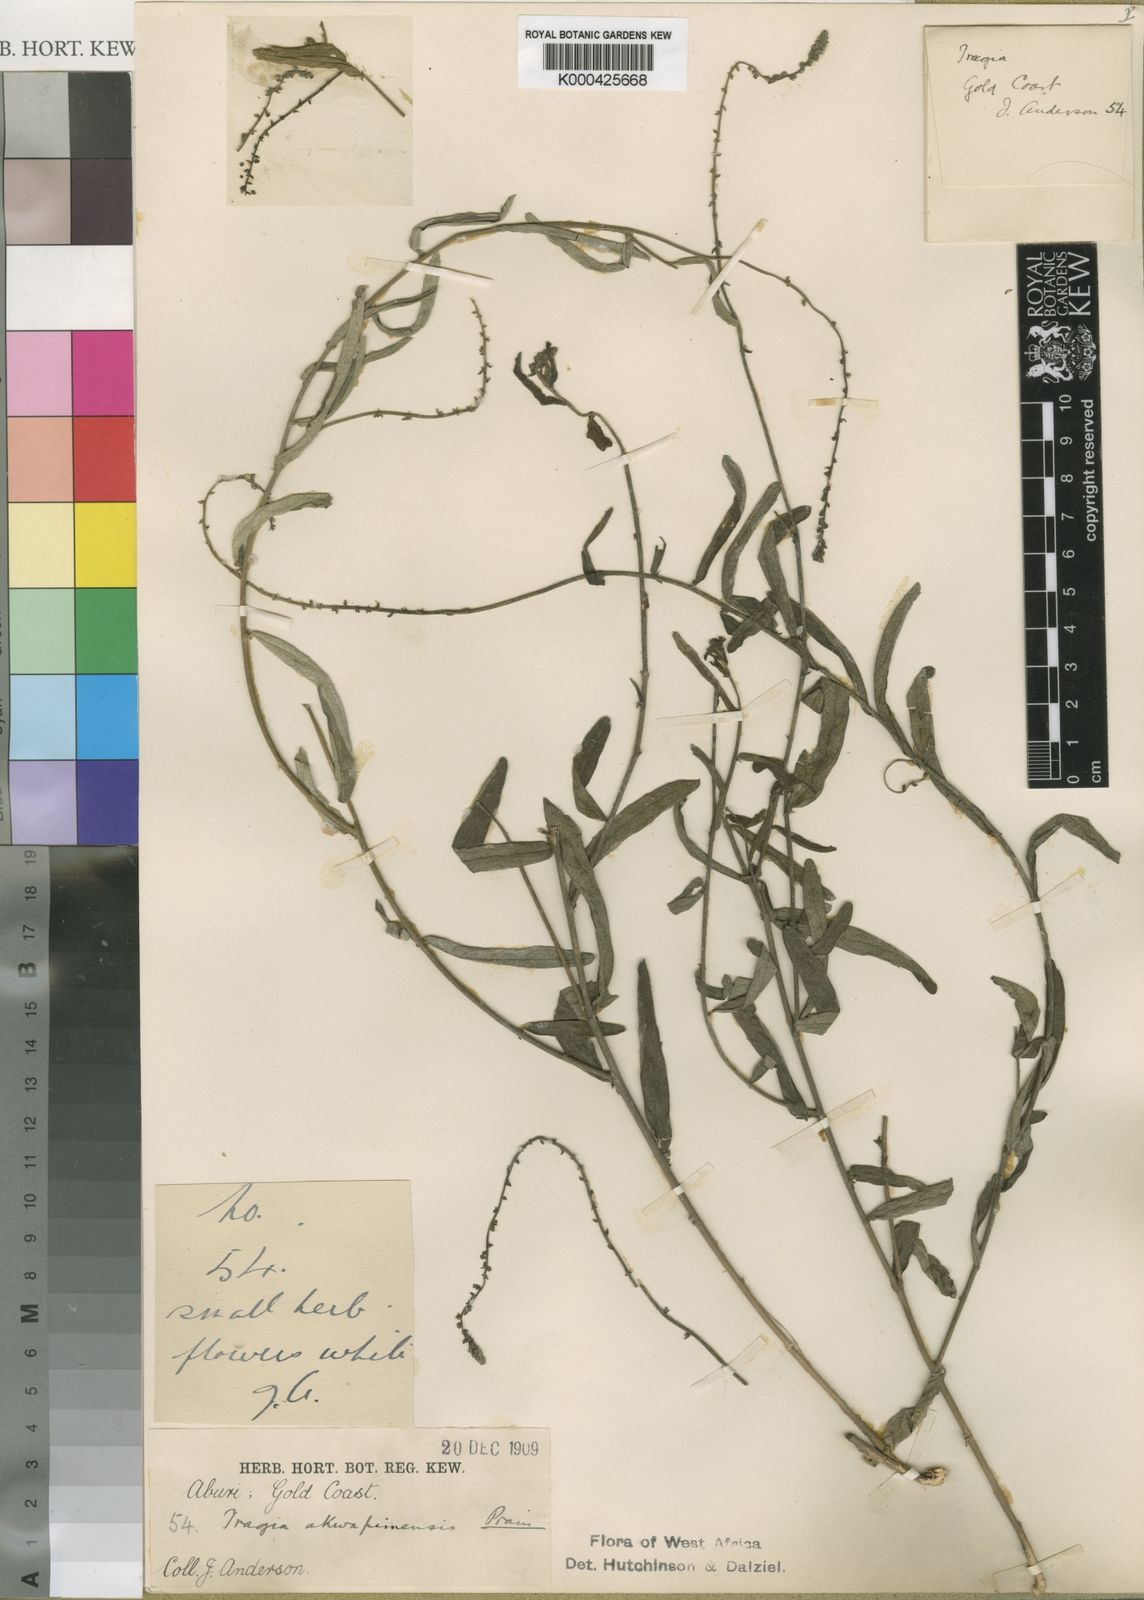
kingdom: Plantae
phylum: Tracheophyta
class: Magnoliopsida
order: Malpighiales
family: Euphorbiaceae
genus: Tragia
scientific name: Tragia wildemanii
